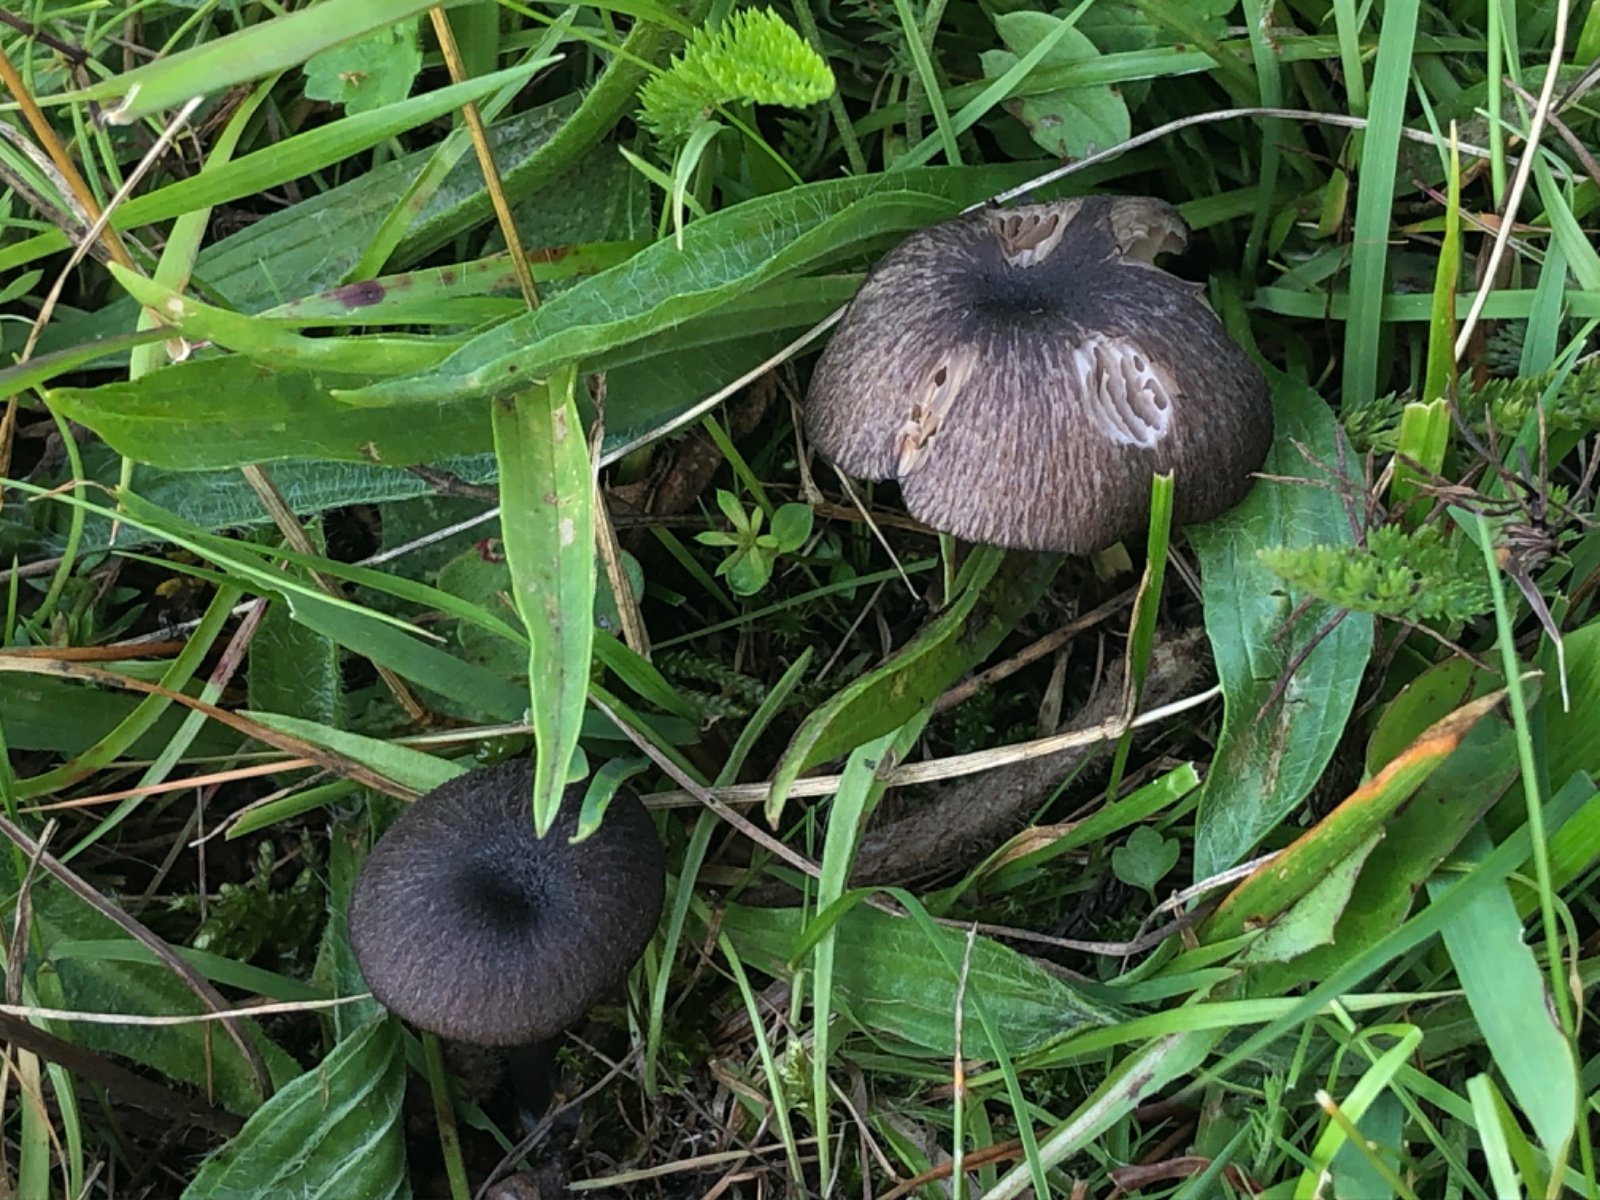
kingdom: Fungi
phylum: Basidiomycota
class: Agaricomycetes
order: Agaricales
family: Entolomataceae
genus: Entoloma
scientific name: Entoloma porphyrogriseum
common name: porfyrgrå rødblad
